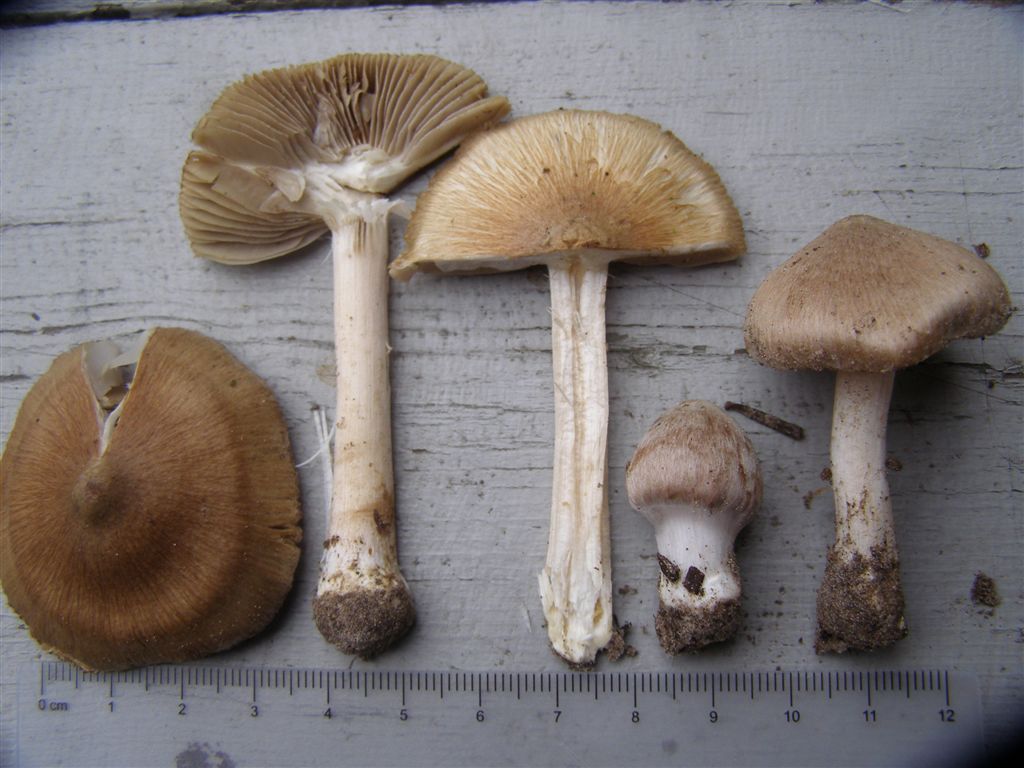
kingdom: Fungi
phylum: Basidiomycota
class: Agaricomycetes
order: Agaricales
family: Inocybaceae
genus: Inocybe
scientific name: Inocybe
